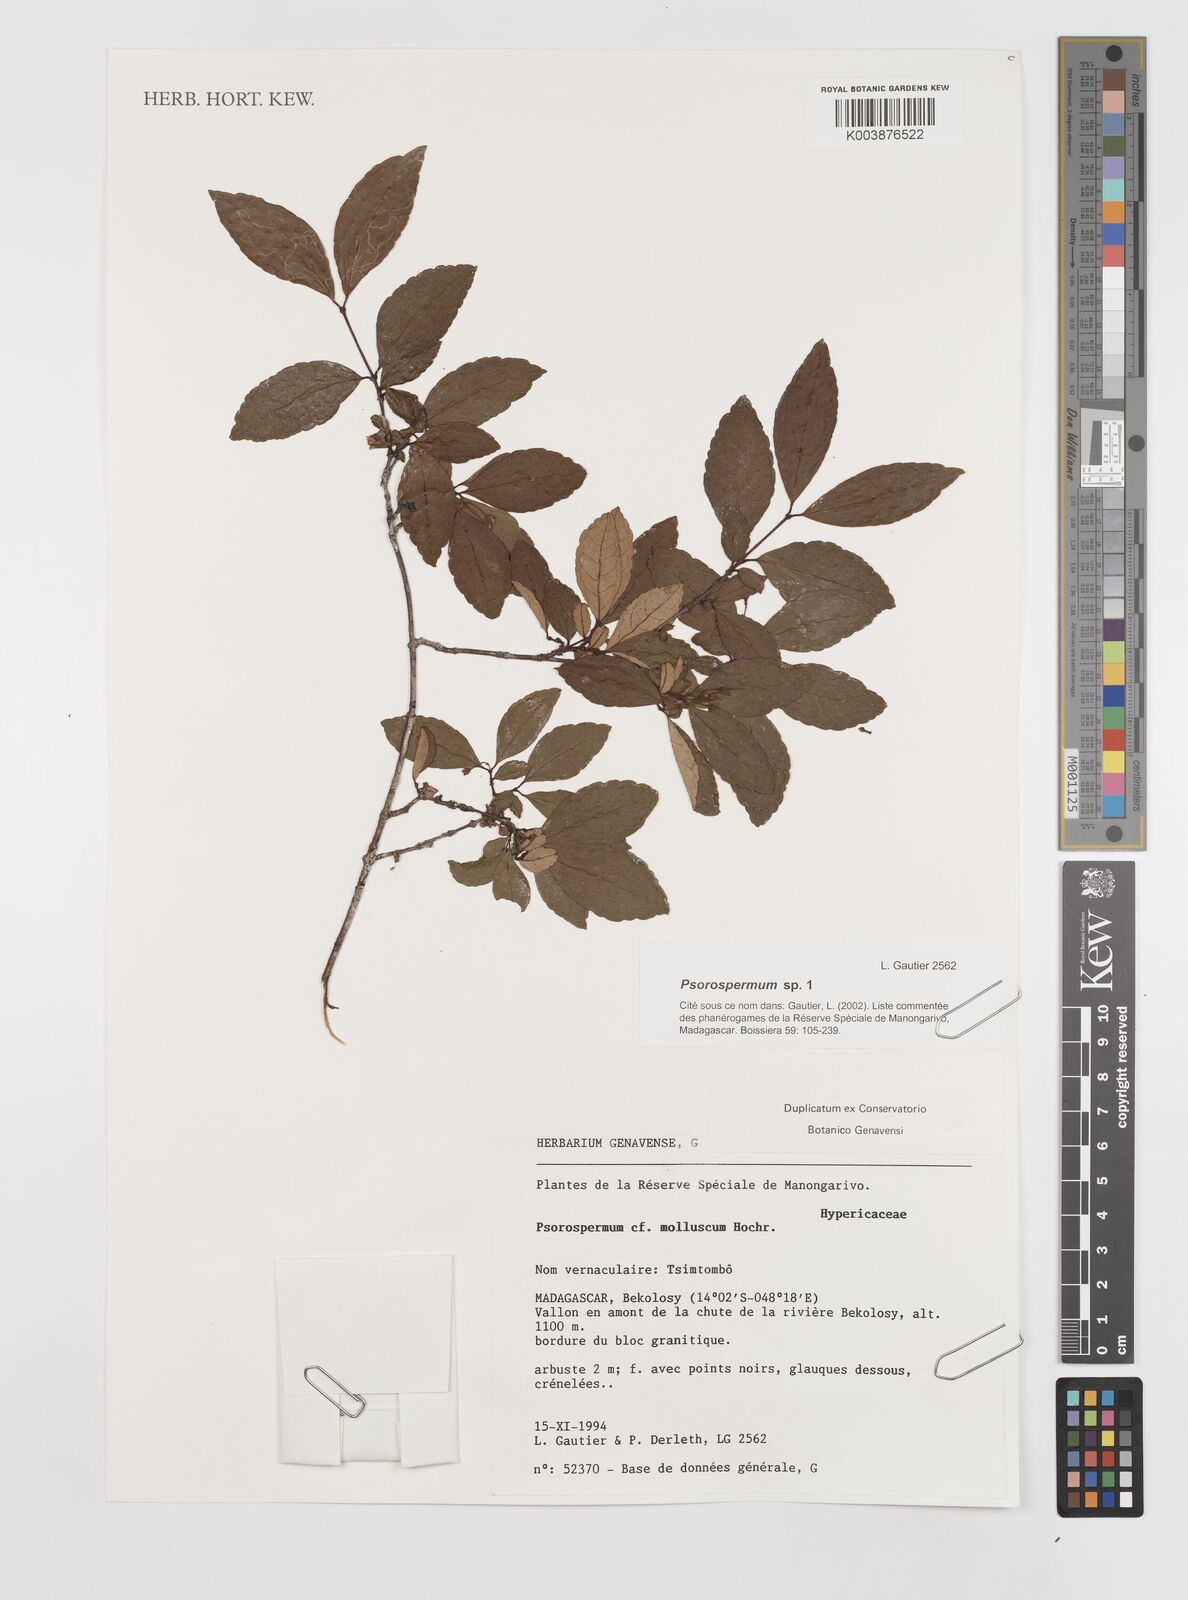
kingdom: Plantae
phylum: Tracheophyta
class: Magnoliopsida
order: Malpighiales
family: Hypericaceae
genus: Psorospermum
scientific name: Psorospermum
